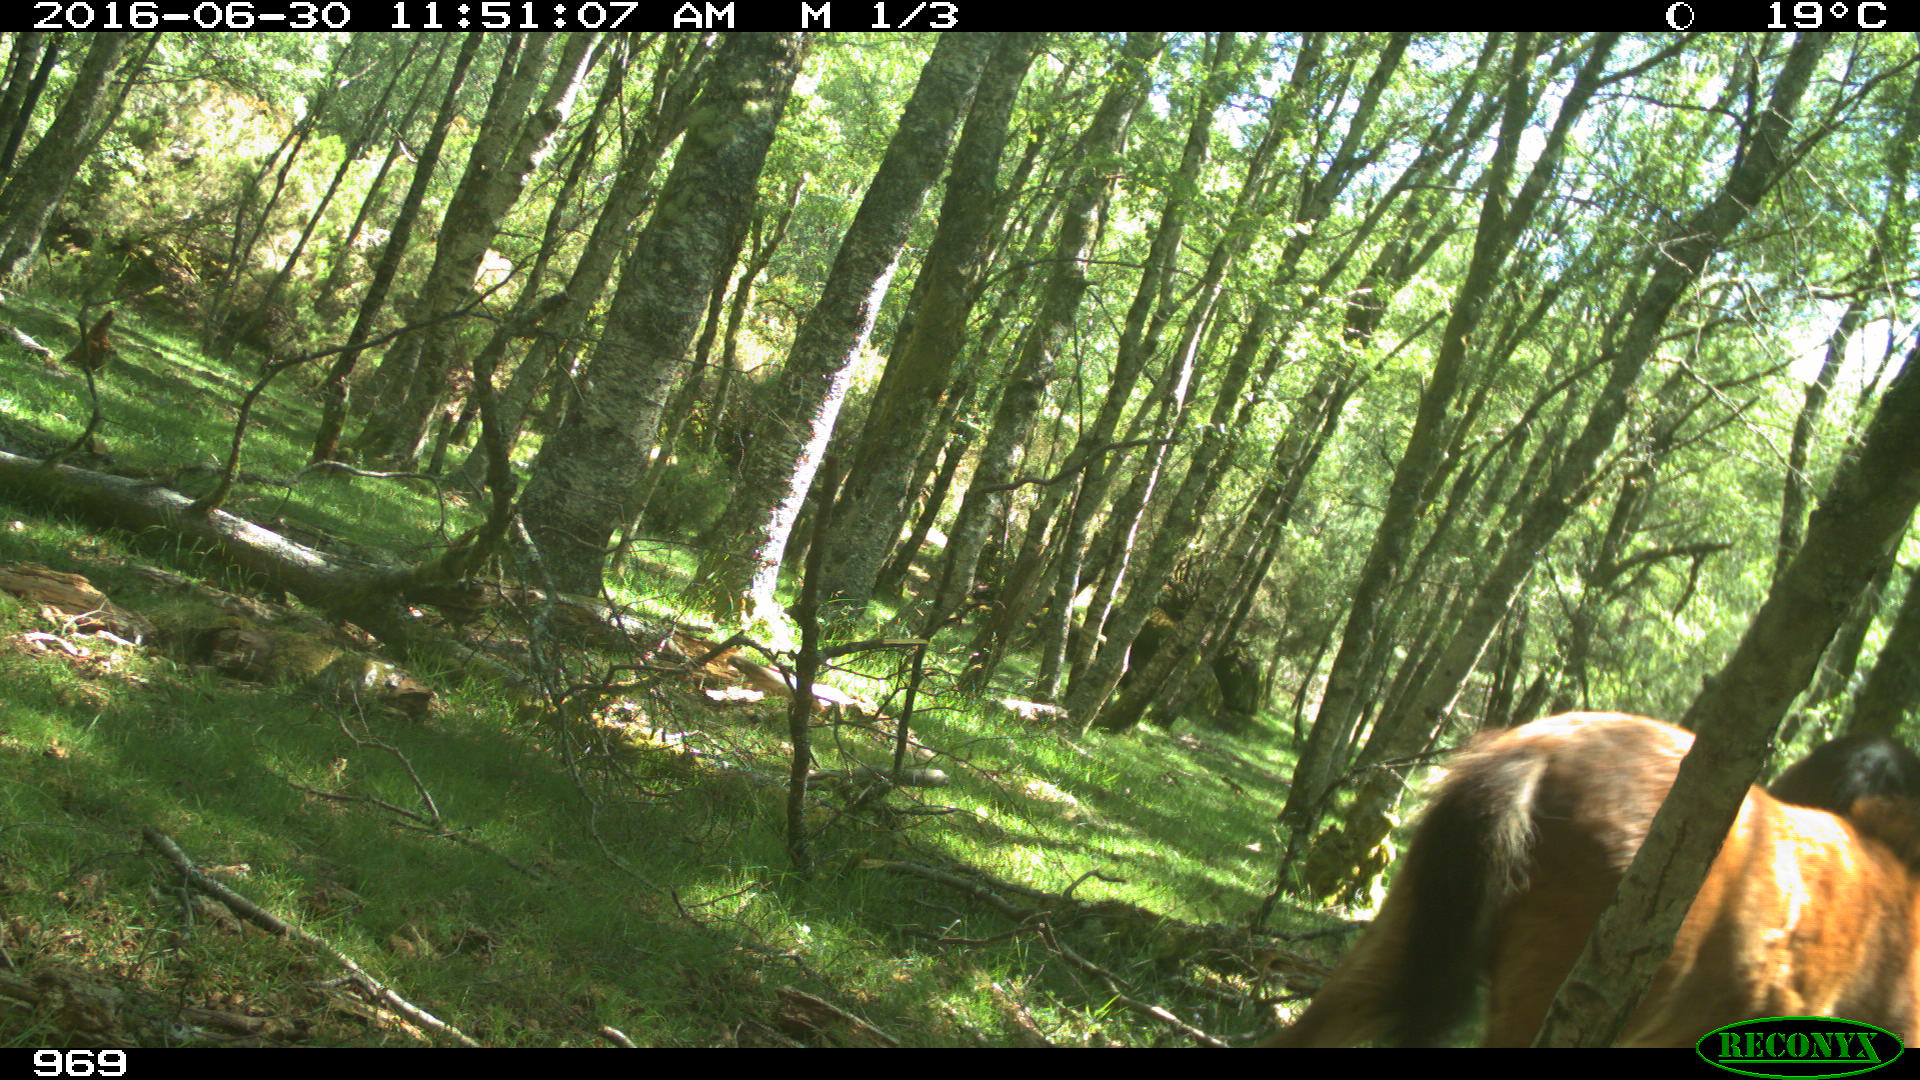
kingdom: Animalia
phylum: Chordata
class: Mammalia
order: Perissodactyla
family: Equidae
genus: Equus
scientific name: Equus caballus
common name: Horse
